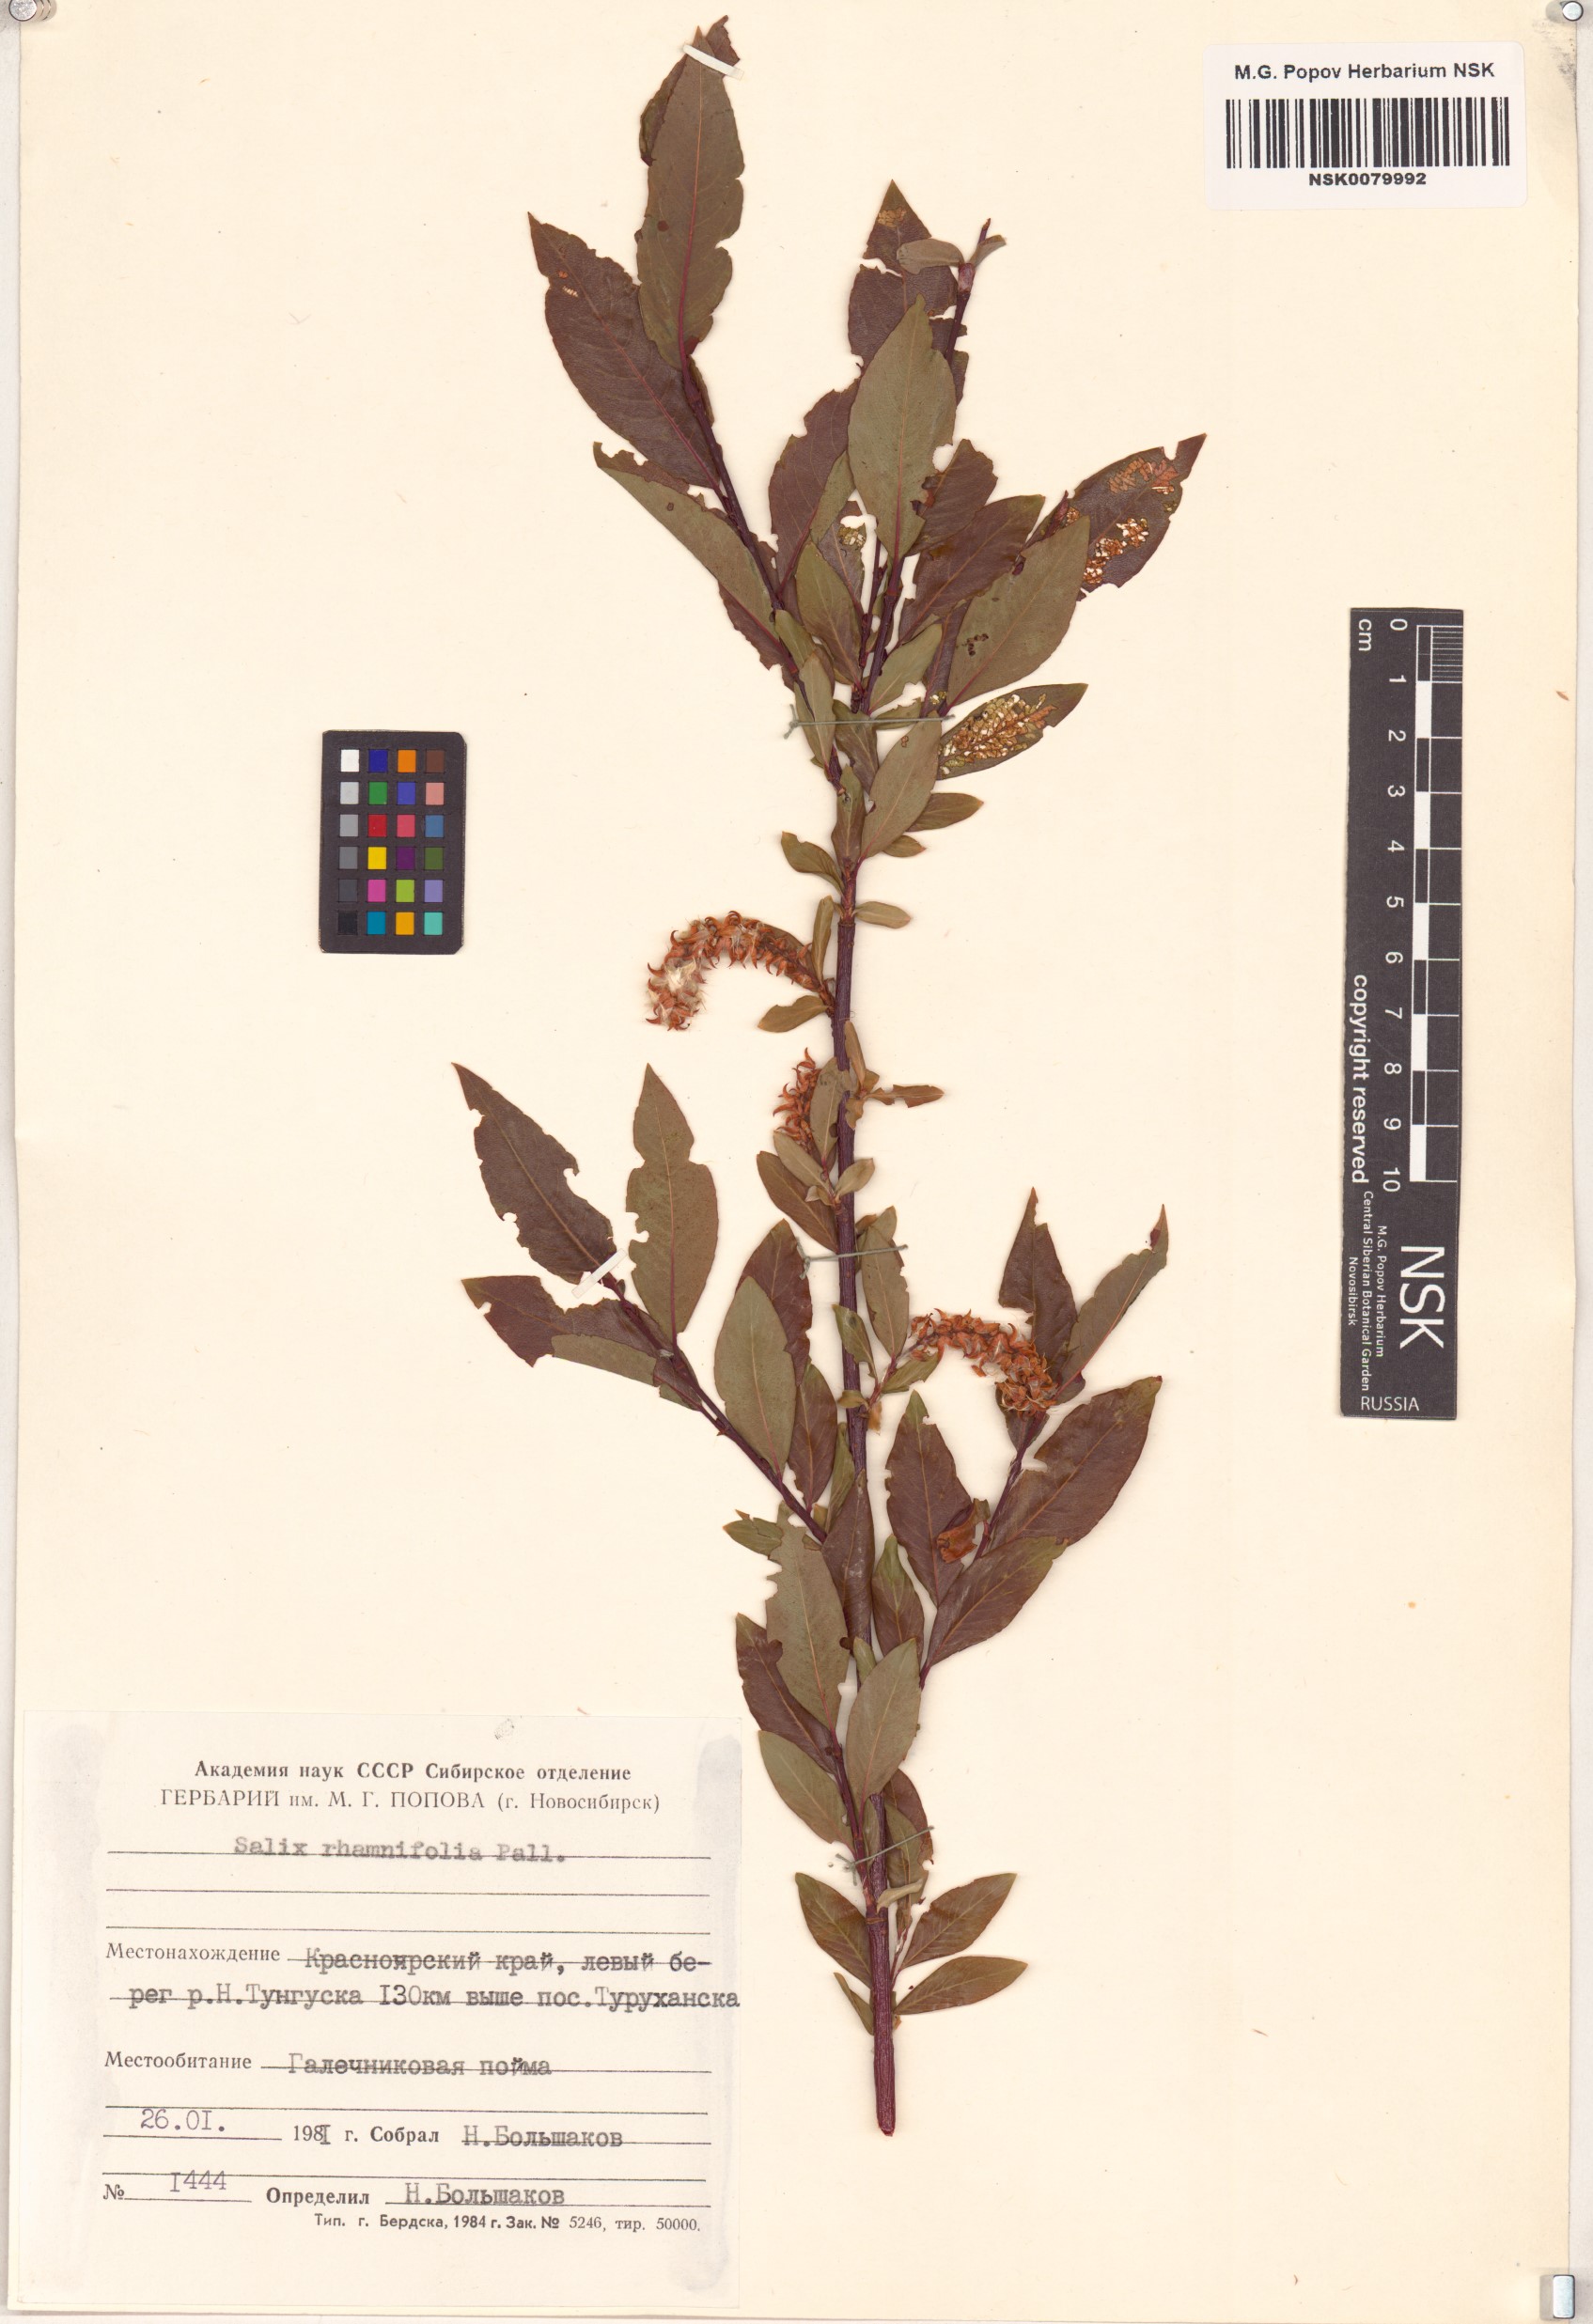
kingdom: Plantae
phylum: Tracheophyta
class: Magnoliopsida
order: Malpighiales
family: Salicaceae
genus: Salix
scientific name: Salix rhamnifolia
